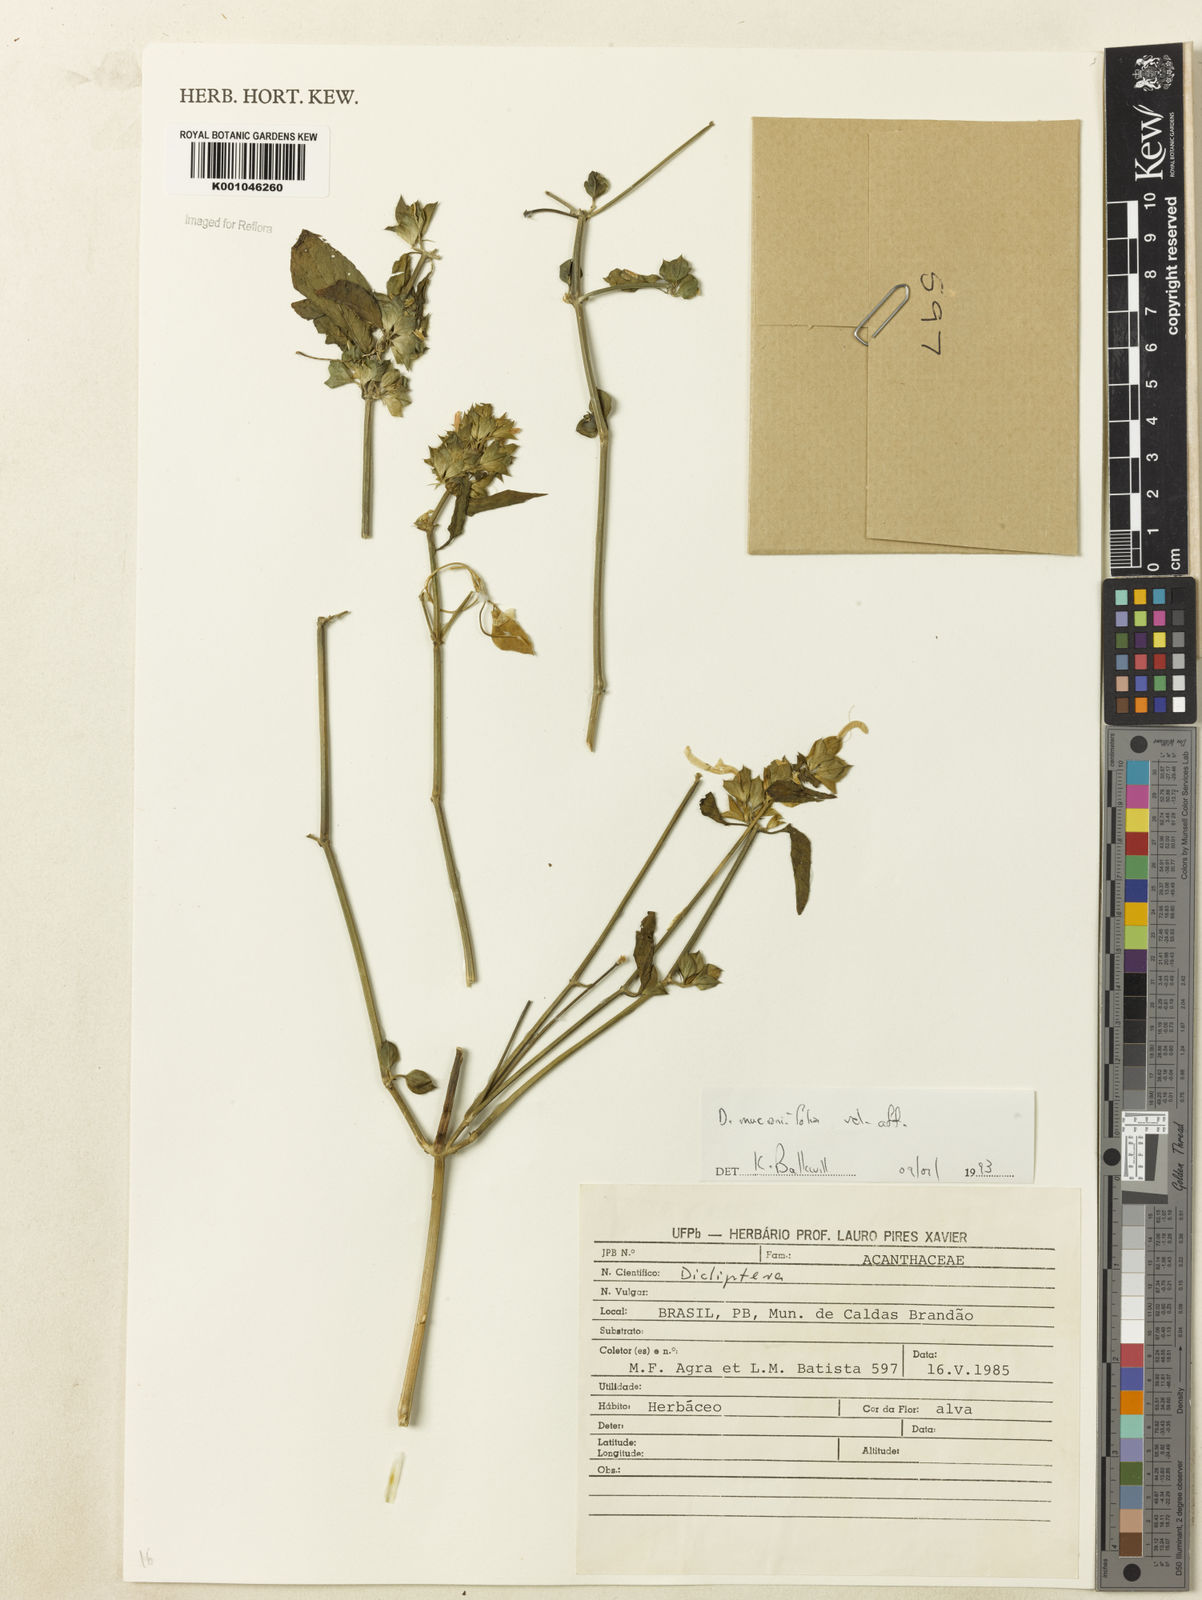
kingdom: Plantae
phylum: Tracheophyta
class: Magnoliopsida
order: Lamiales
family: Acanthaceae
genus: Dicliptera
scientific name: Dicliptera mucronifolia
